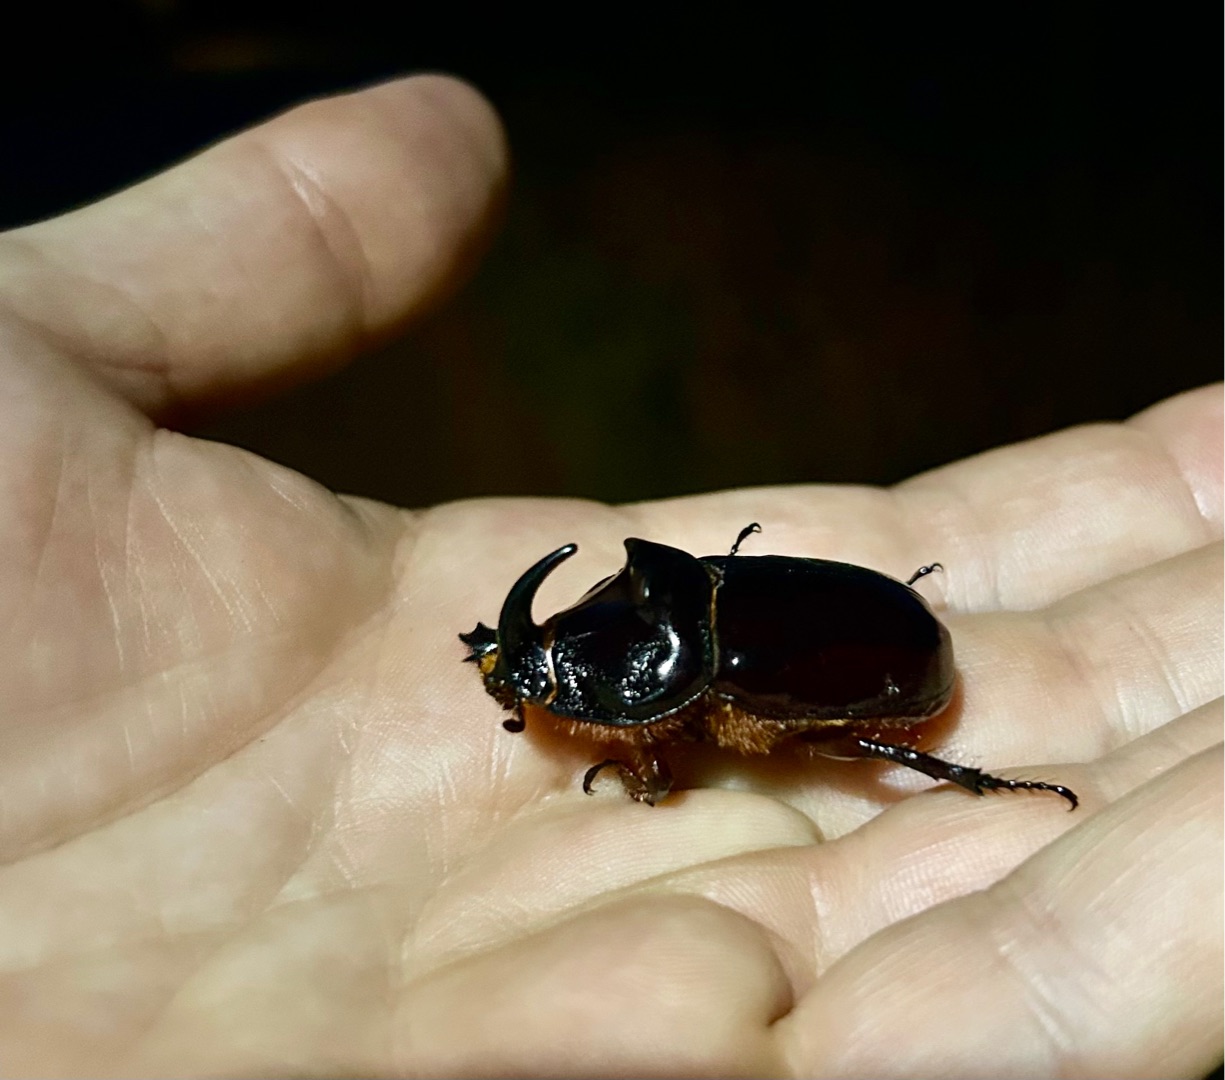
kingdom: Animalia
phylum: Arthropoda
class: Insecta
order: Coleoptera
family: Scarabaeidae
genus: Oryctes
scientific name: Oryctes nasicornis
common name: Næsehornsbille
